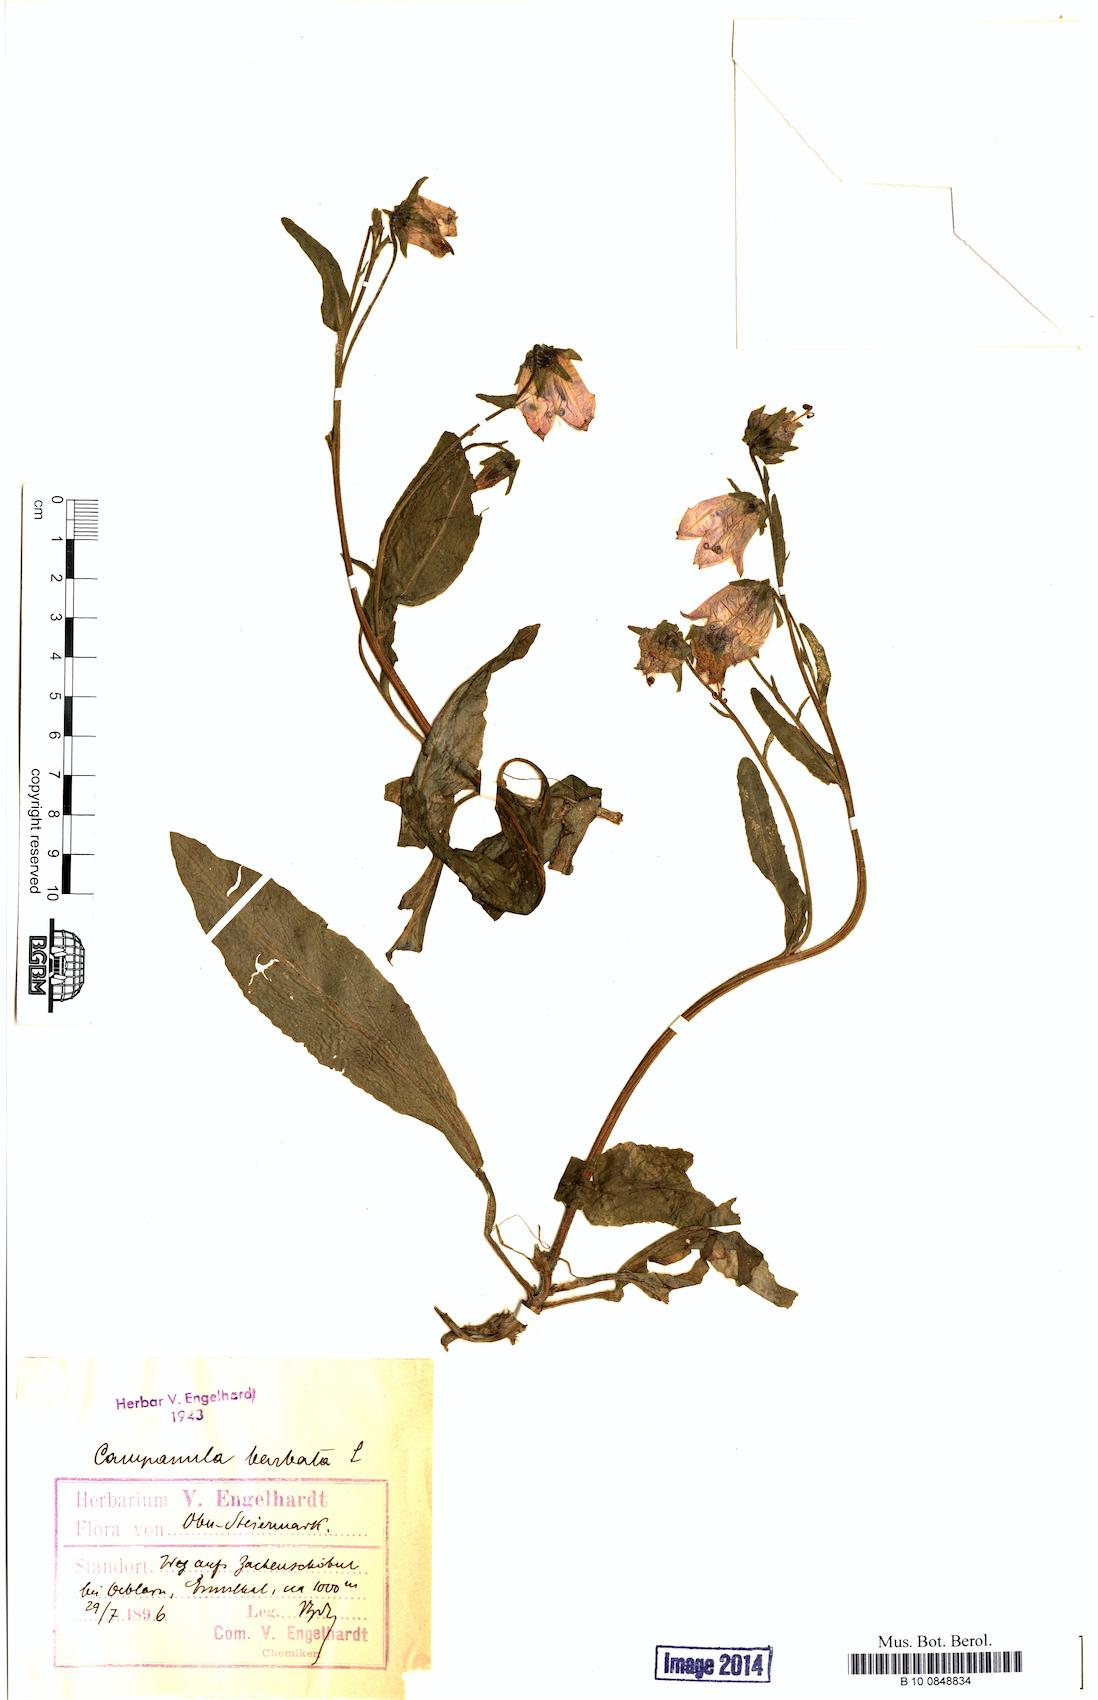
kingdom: Plantae
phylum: Tracheophyta
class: Magnoliopsida
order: Asterales
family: Campanulaceae
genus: Campanula
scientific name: Campanula barbata
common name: Bearded bellflower
